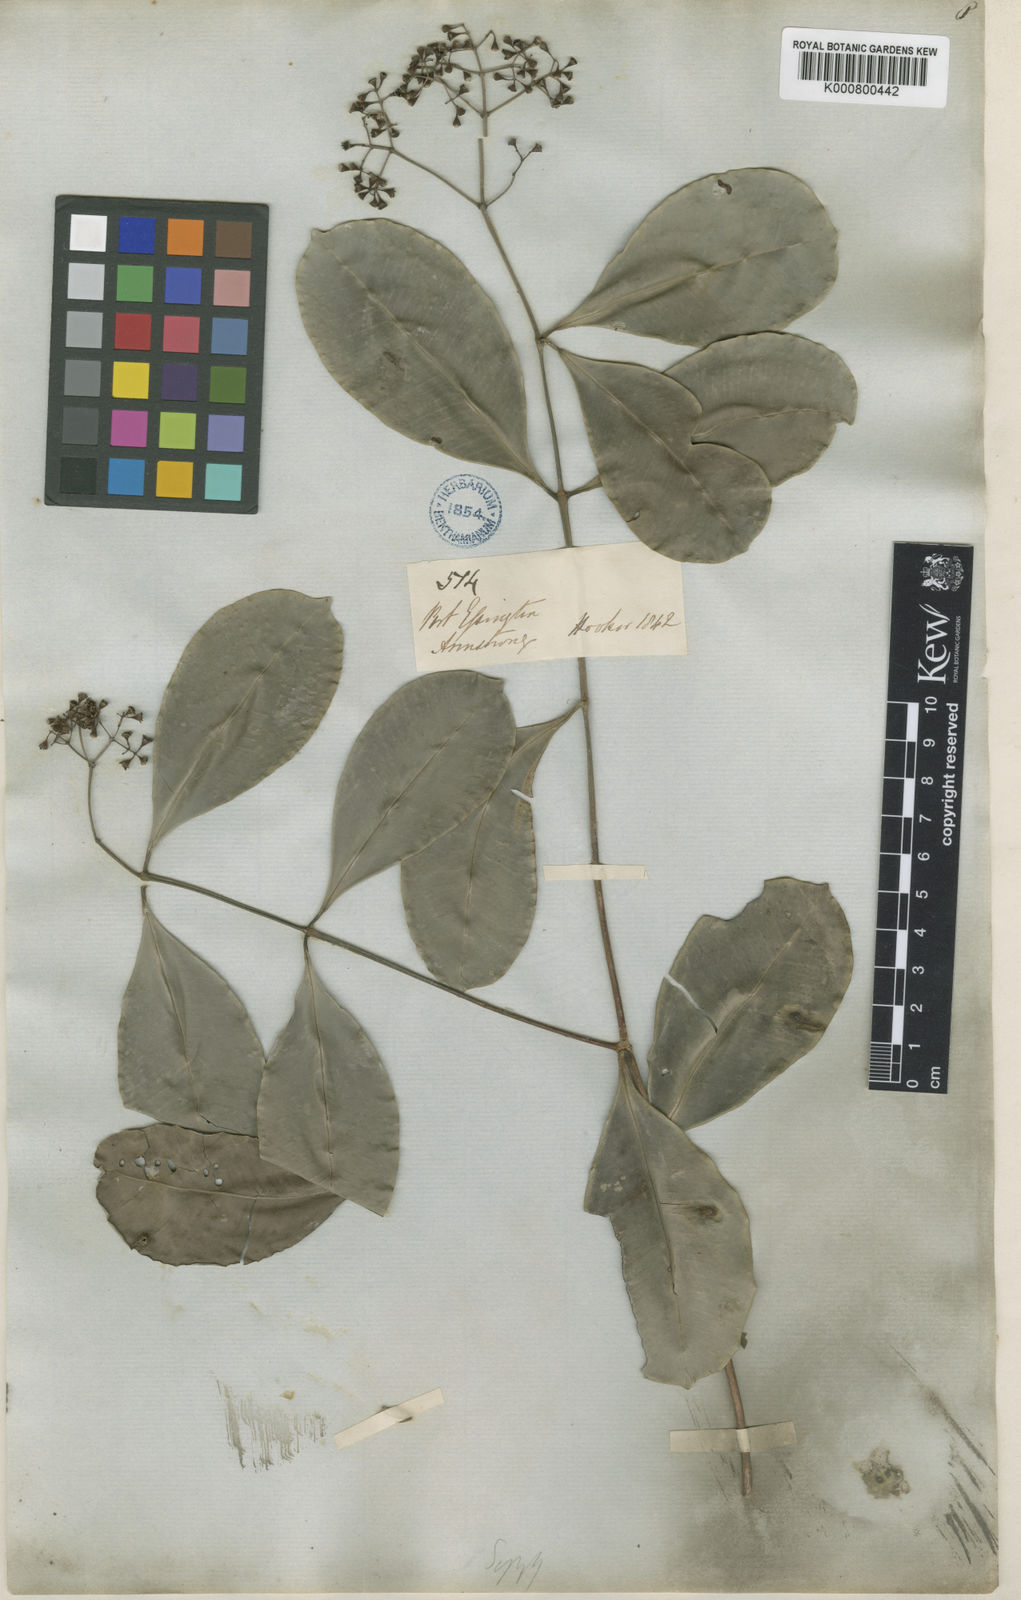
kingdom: Plantae
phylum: Tracheophyta
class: Magnoliopsida
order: Myrtales
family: Myrtaceae
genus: Syzygium
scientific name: Syzygium minutuliflorum
